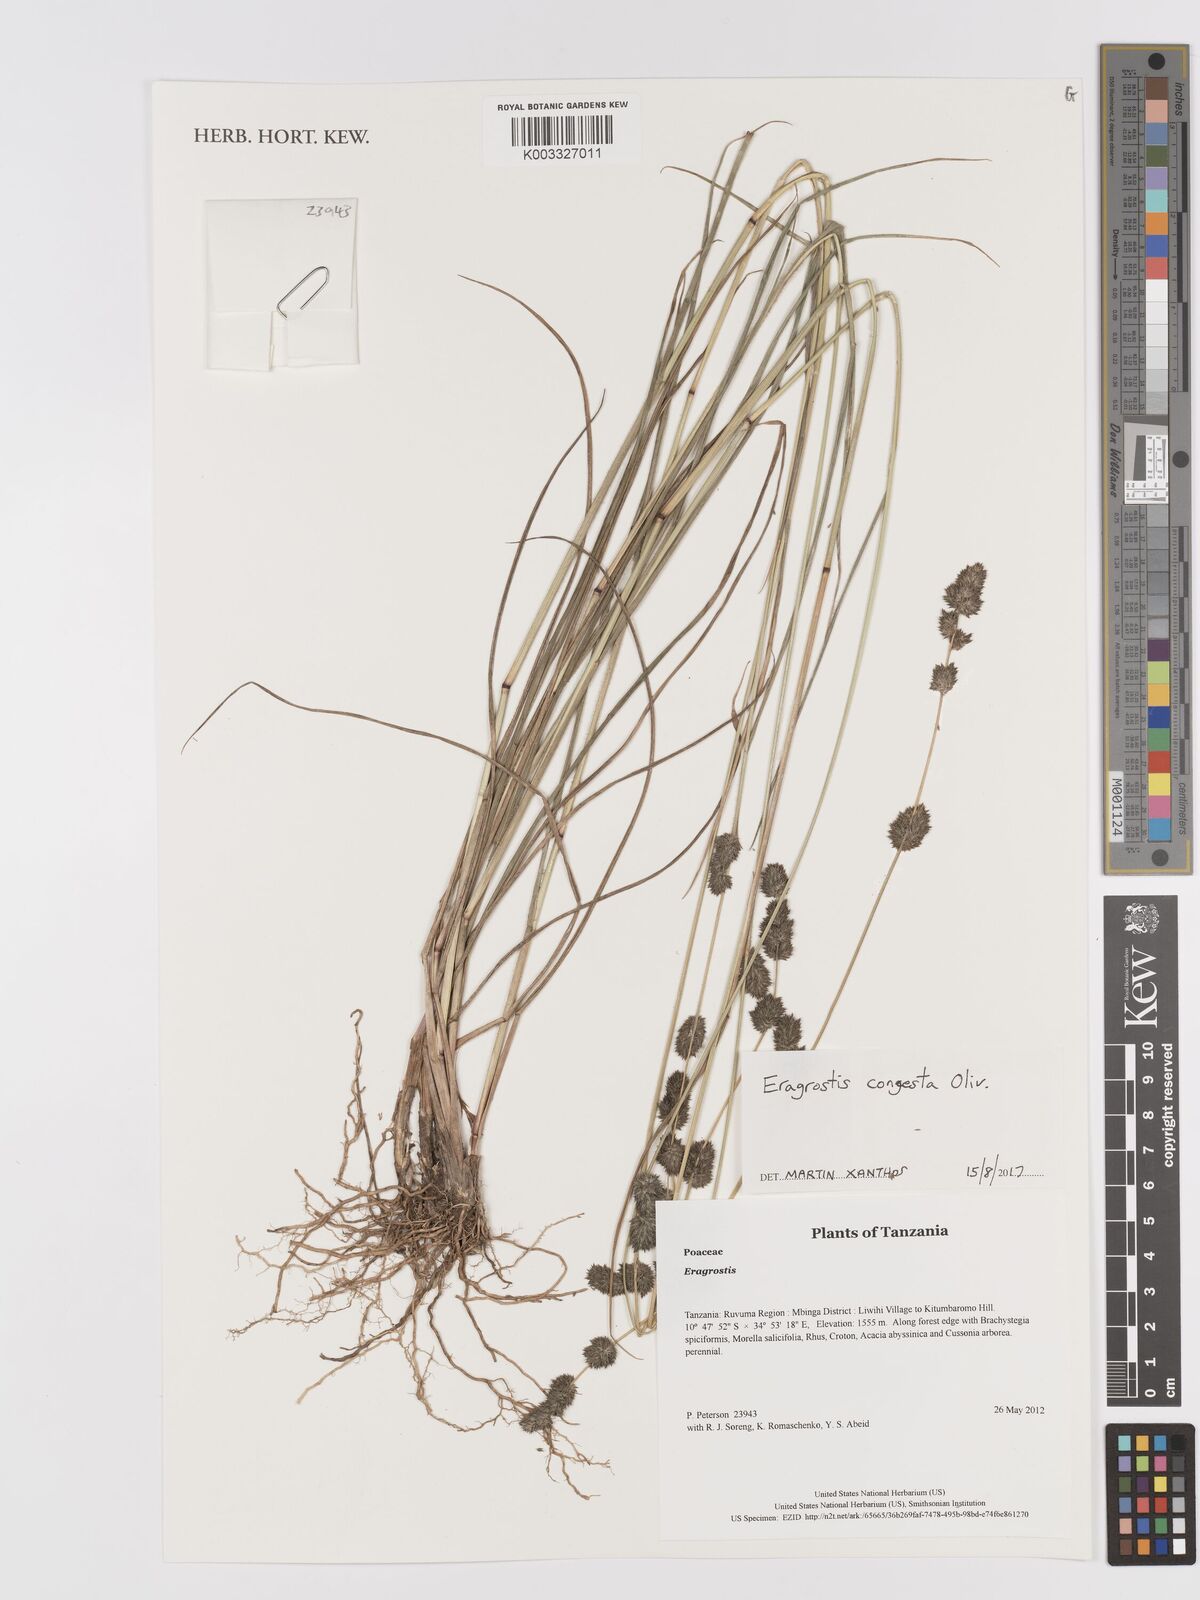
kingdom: Plantae
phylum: Tracheophyta
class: Liliopsida
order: Poales
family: Poaceae
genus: Eragrostis
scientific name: Eragrostis congesta
